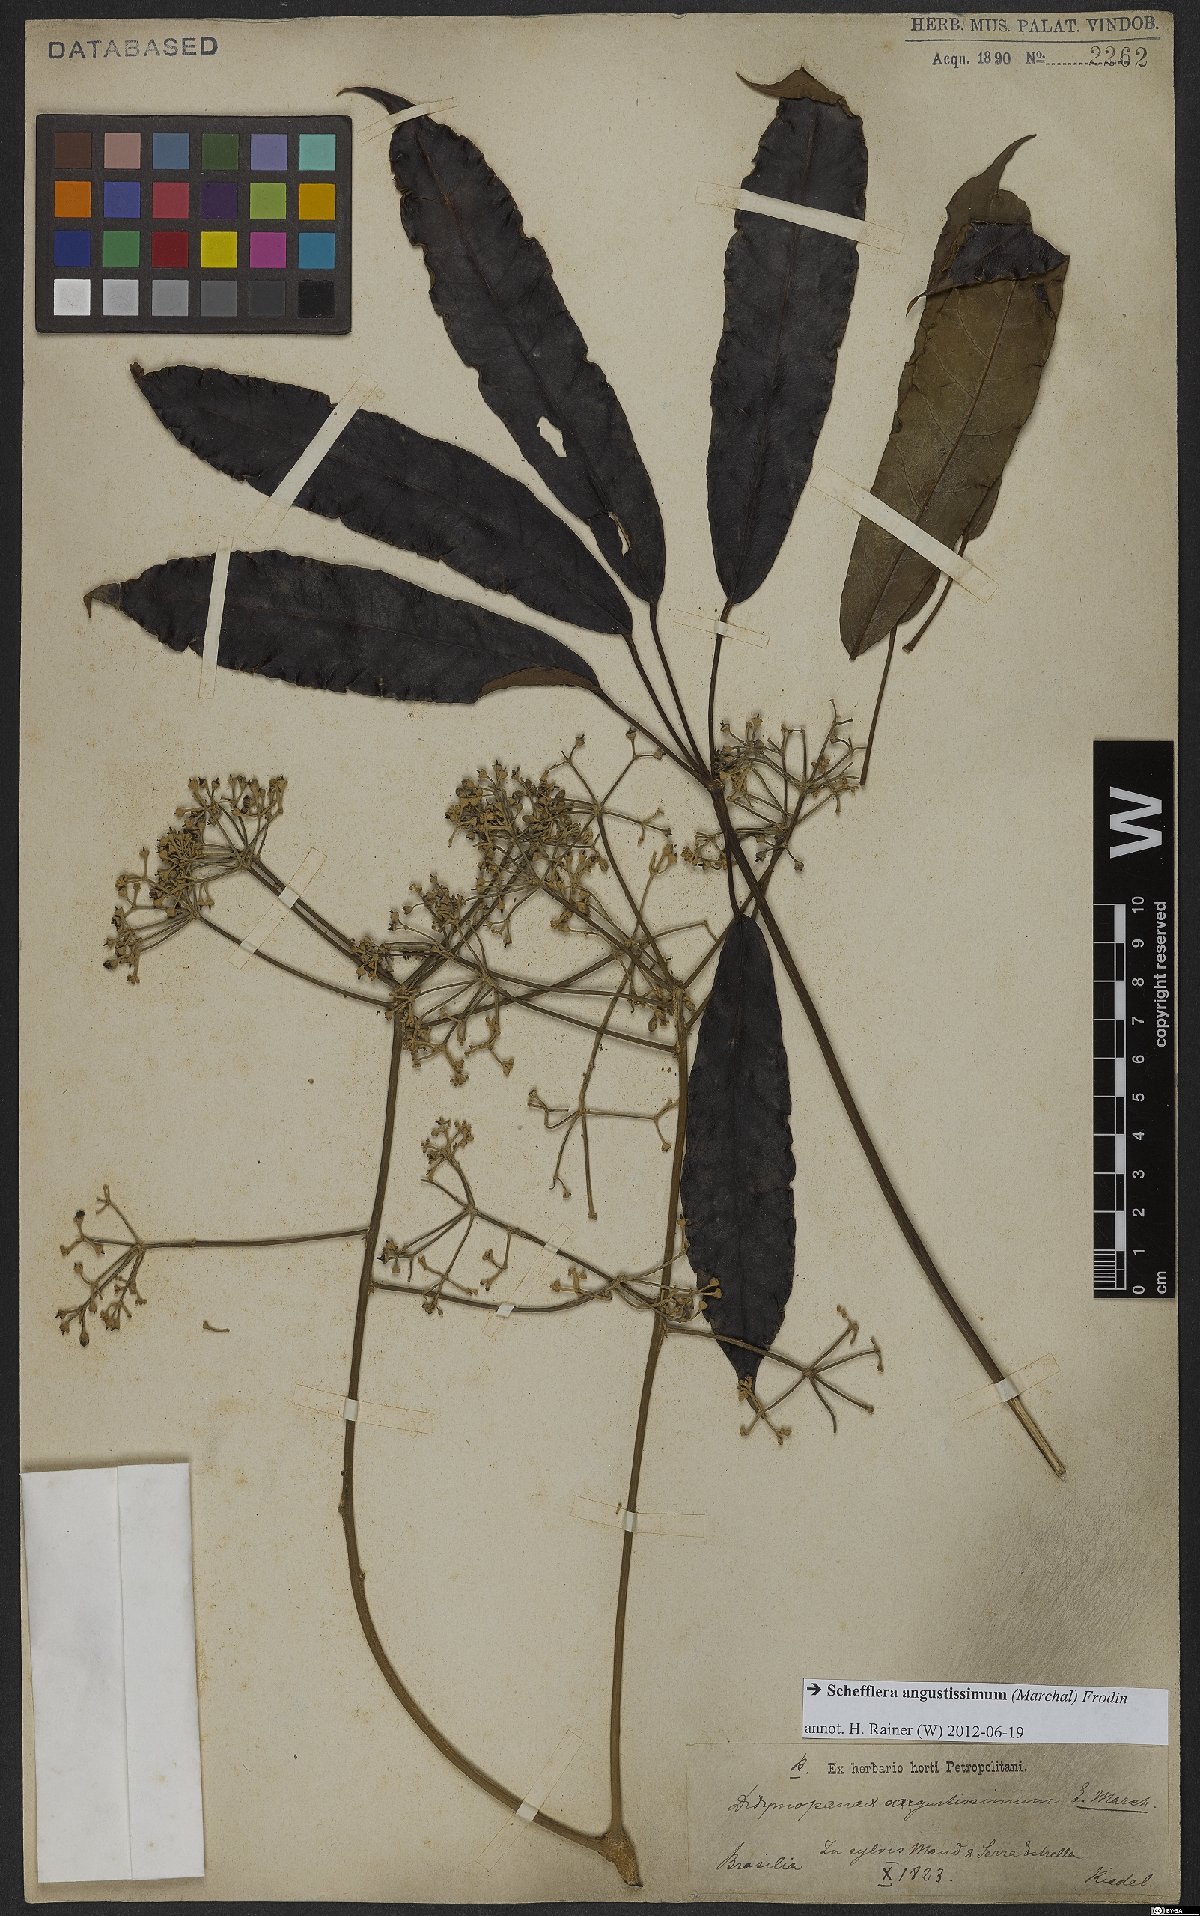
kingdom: Plantae
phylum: Tracheophyta
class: Magnoliopsida
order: Apiales
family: Araliaceae
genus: Didymopanax
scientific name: Didymopanax angustissimus
